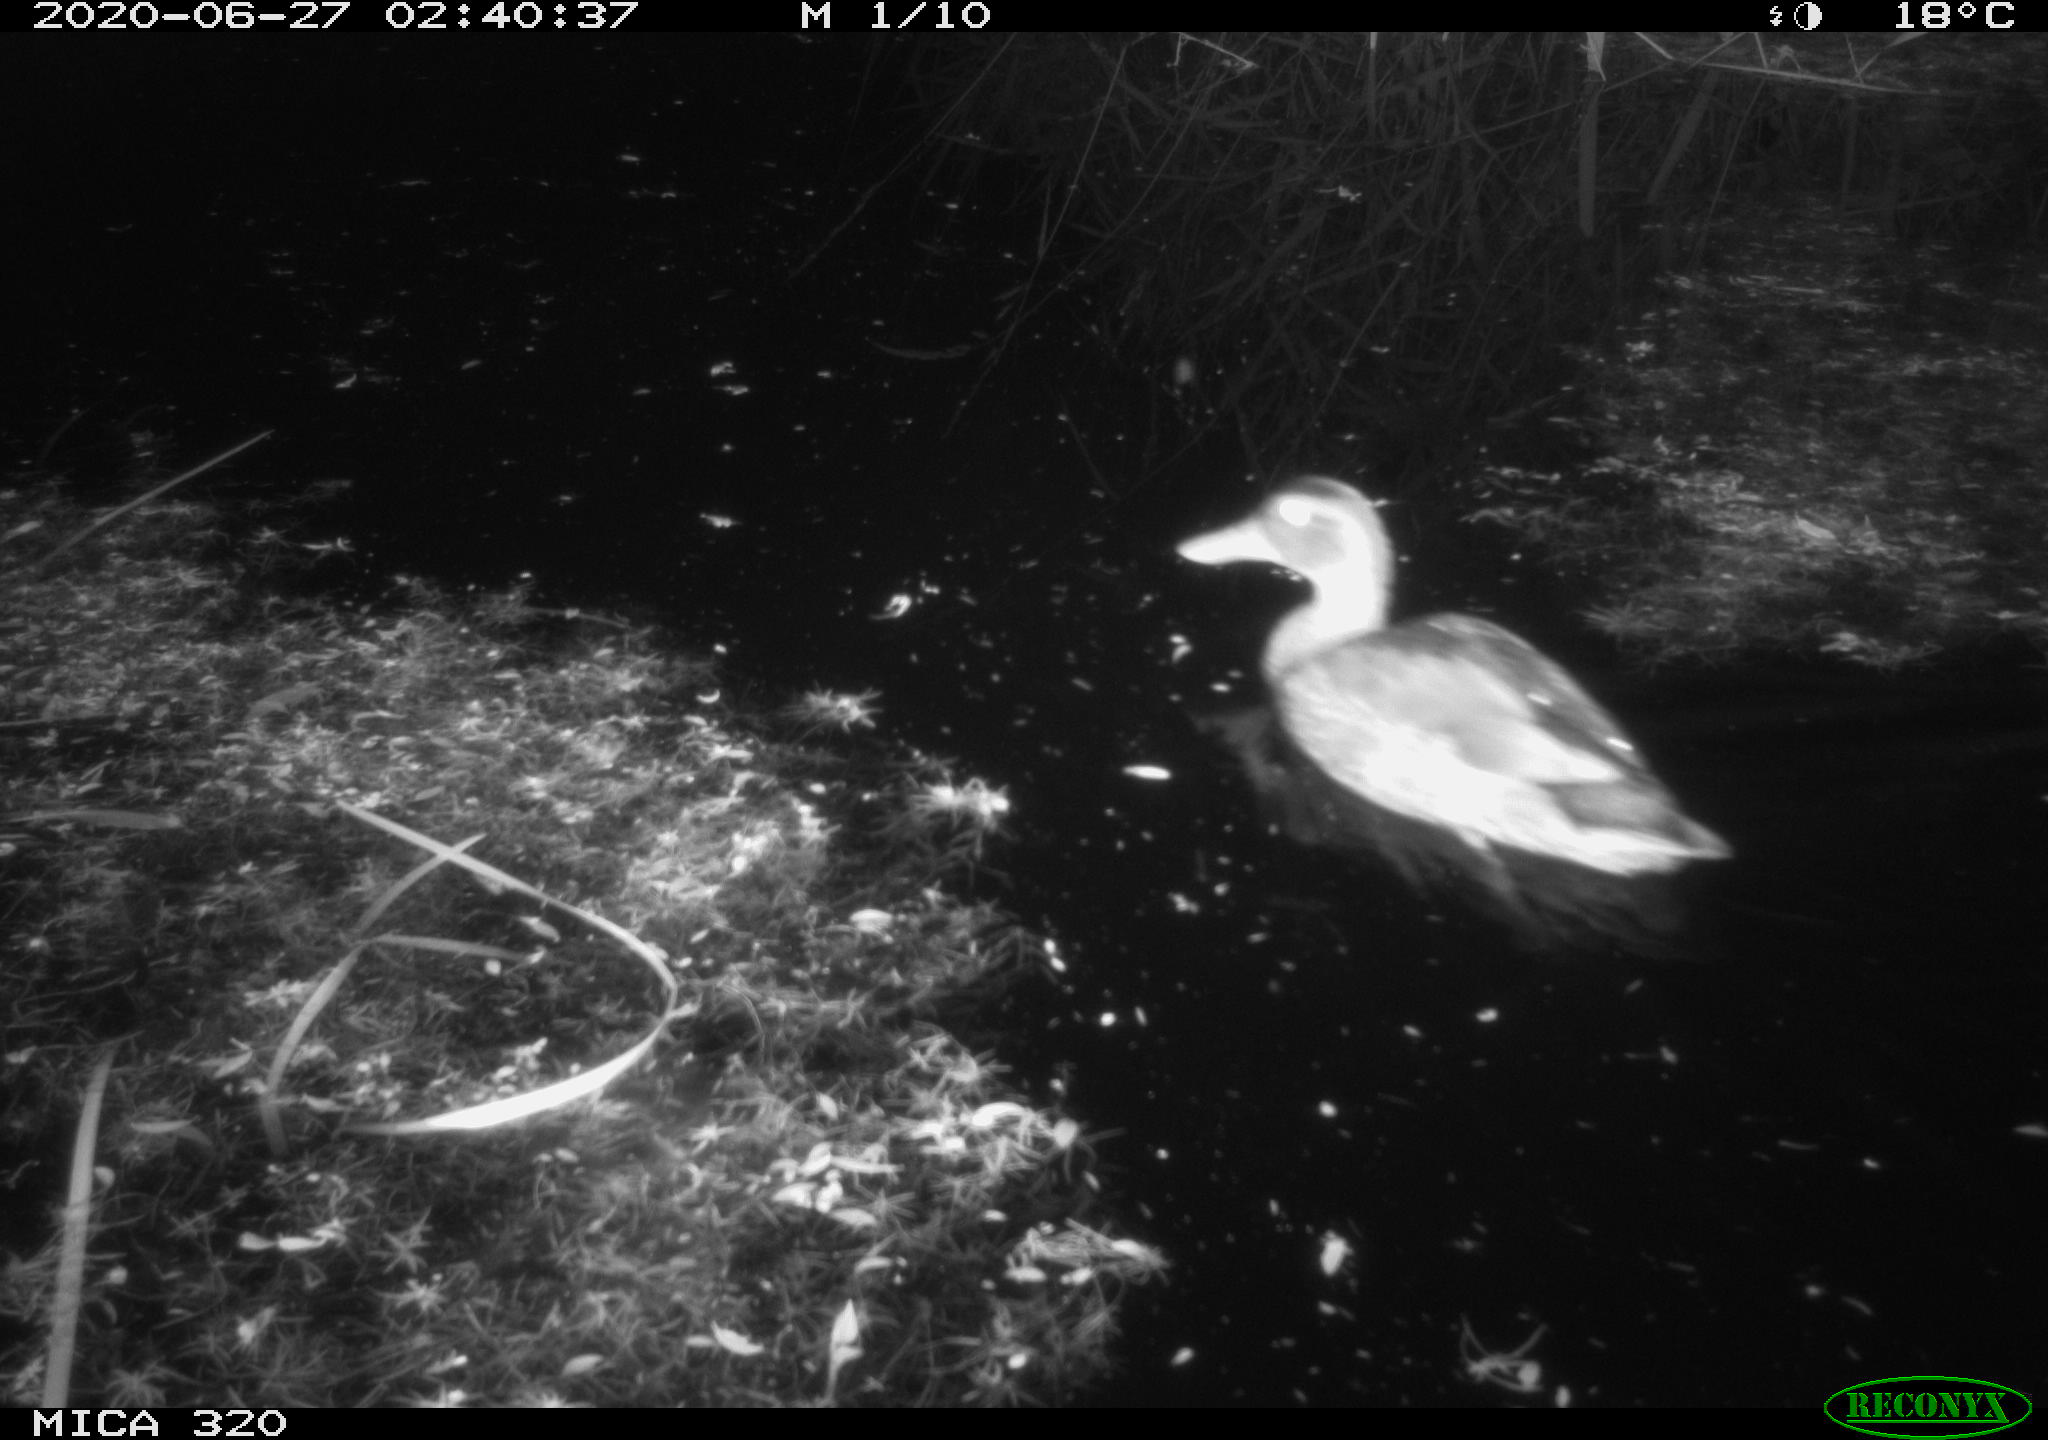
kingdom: Animalia
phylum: Chordata
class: Aves
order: Anseriformes
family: Anatidae
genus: Anas
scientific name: Anas platyrhynchos
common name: Mallard
